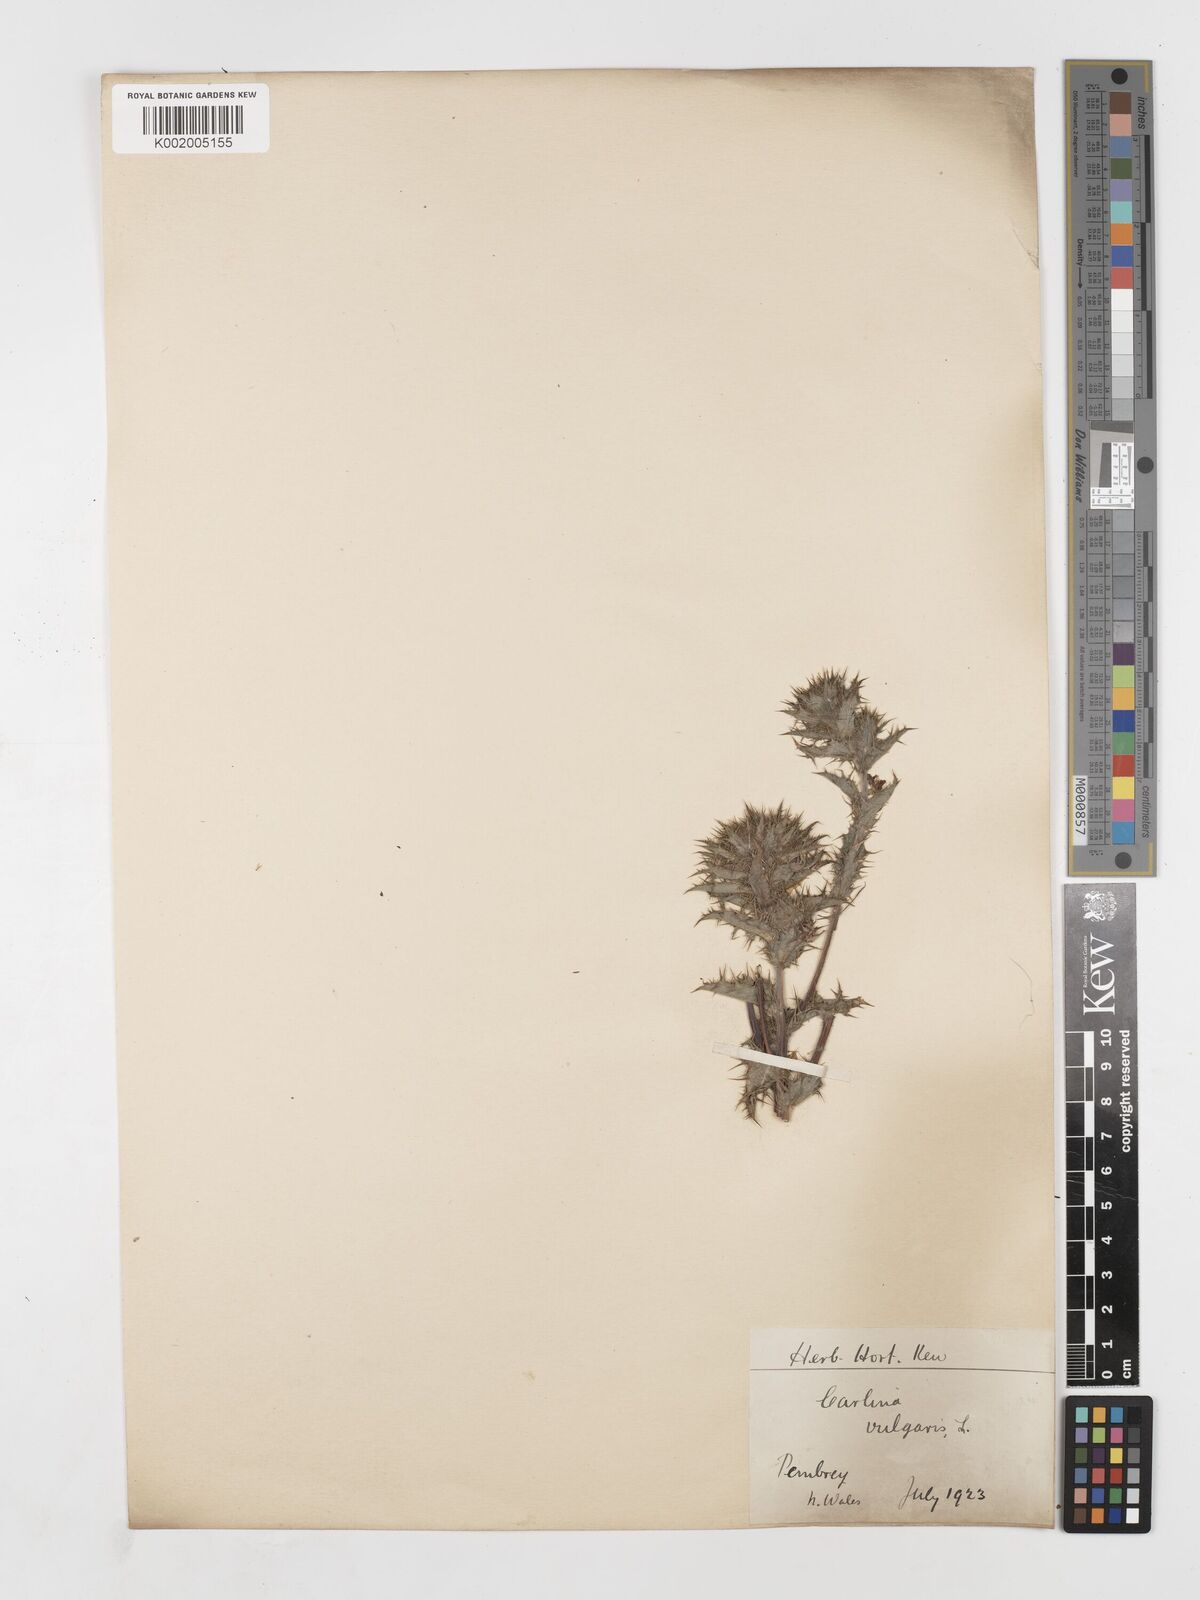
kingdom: Plantae
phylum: Tracheophyta
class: Magnoliopsida
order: Asterales
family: Asteraceae
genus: Carlina
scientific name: Carlina vulgaris
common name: Carline thistle
